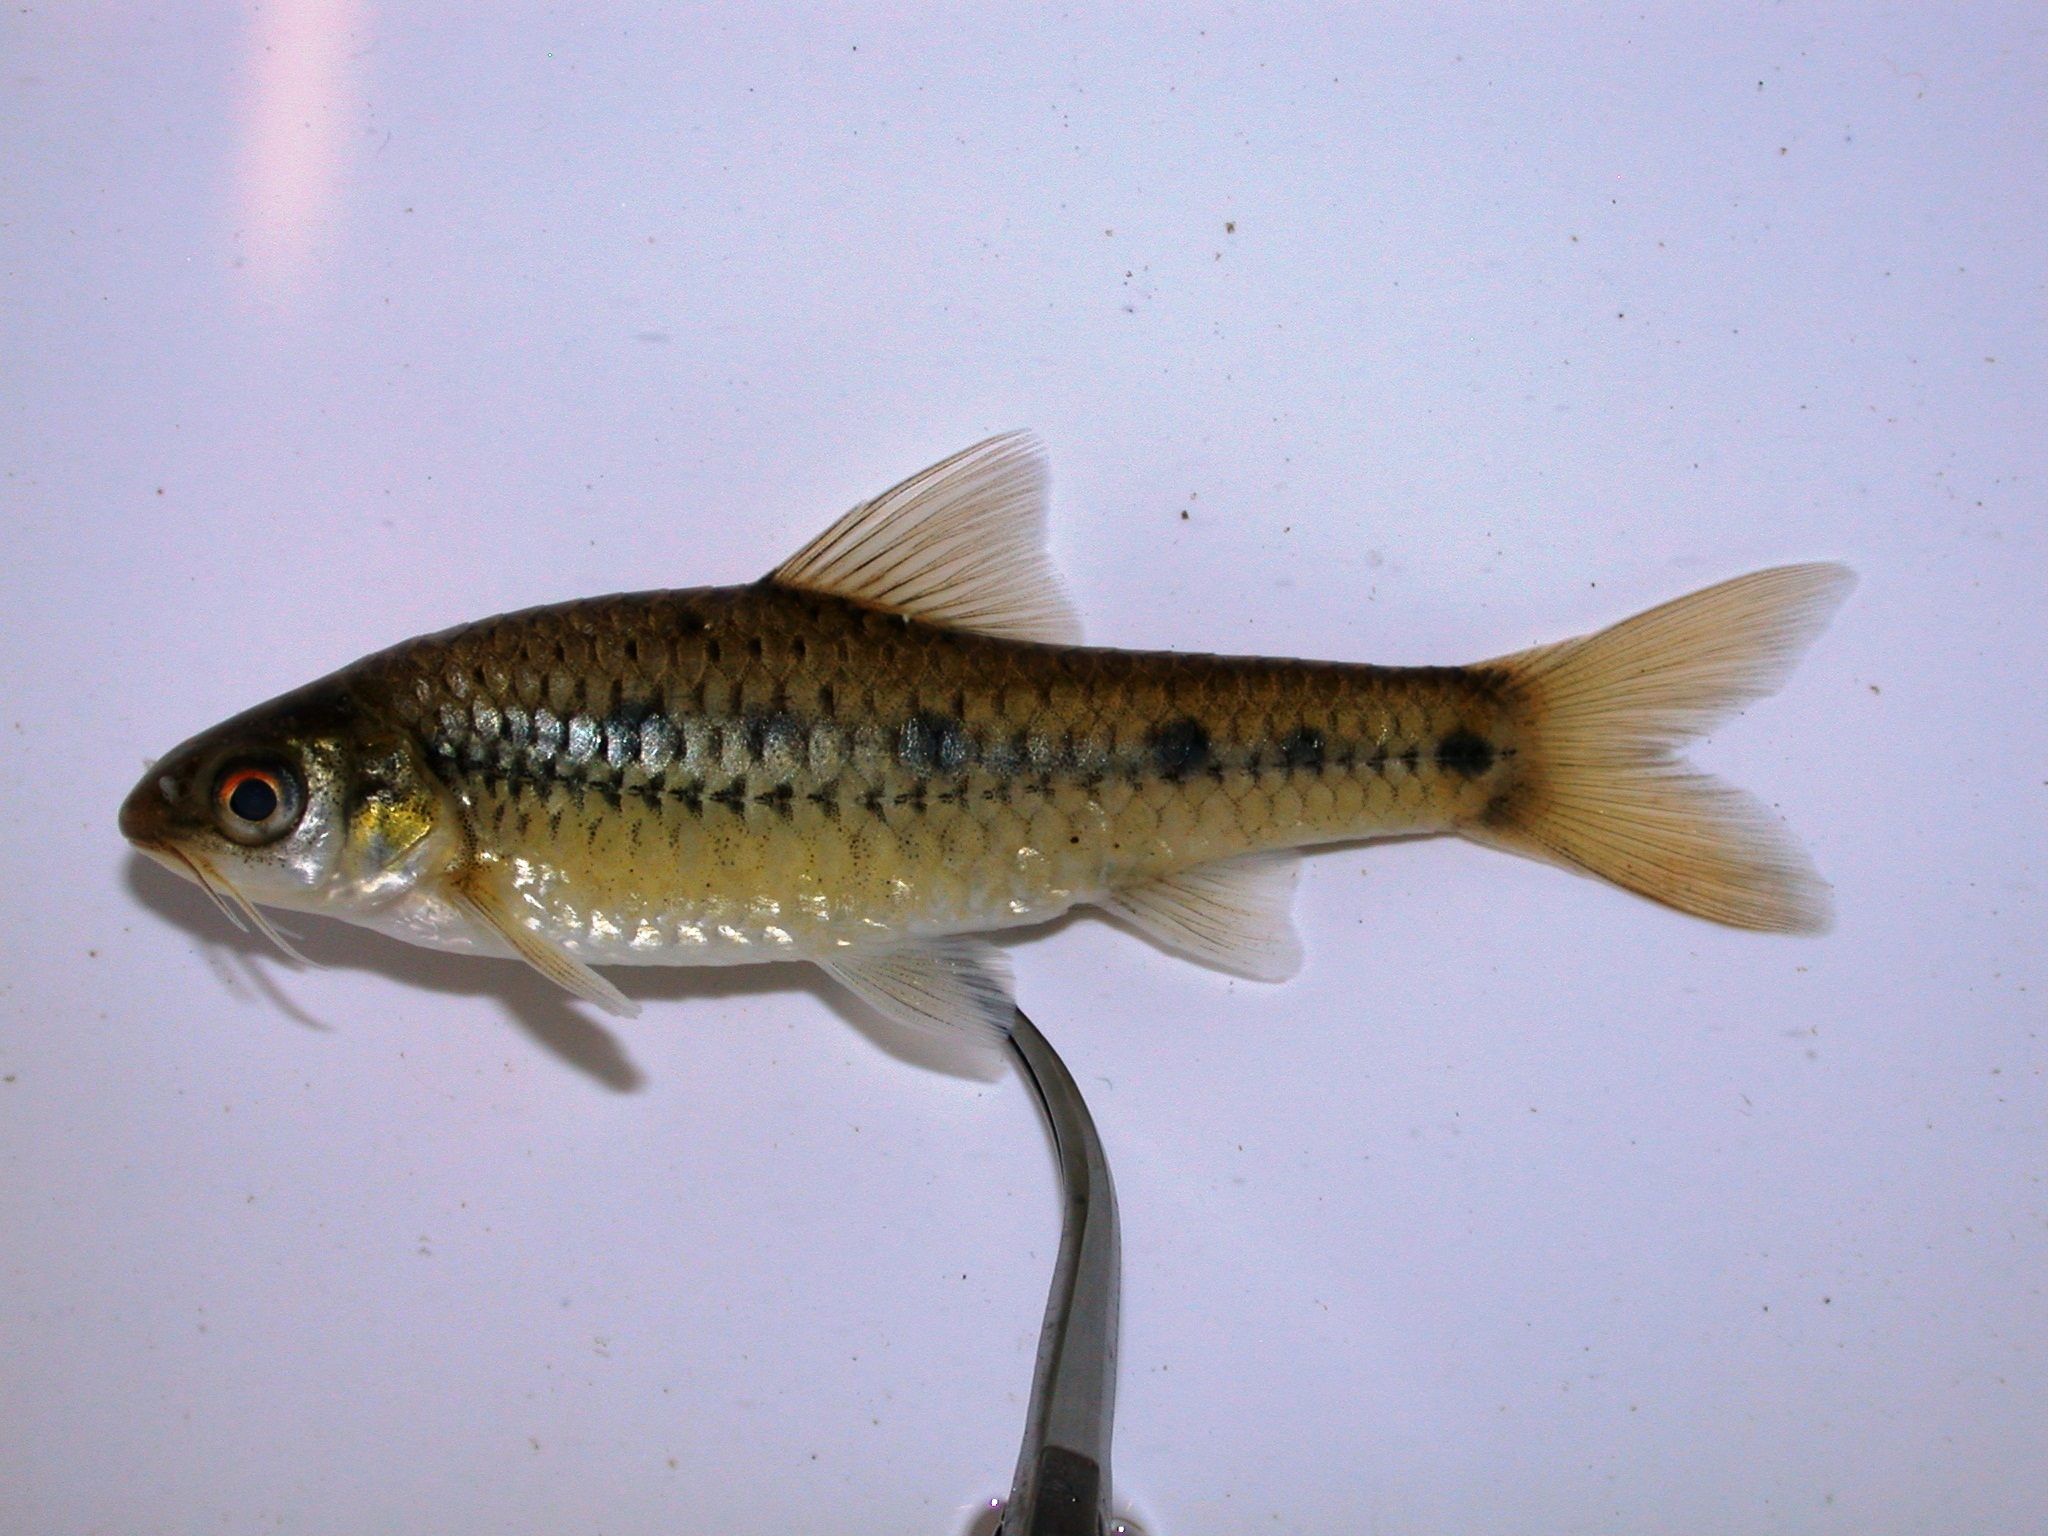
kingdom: Animalia
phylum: Chordata
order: Cypriniformes
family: Cyprinidae
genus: Enteromius
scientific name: Enteromius lineomaculatus
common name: Line-spotted barb
